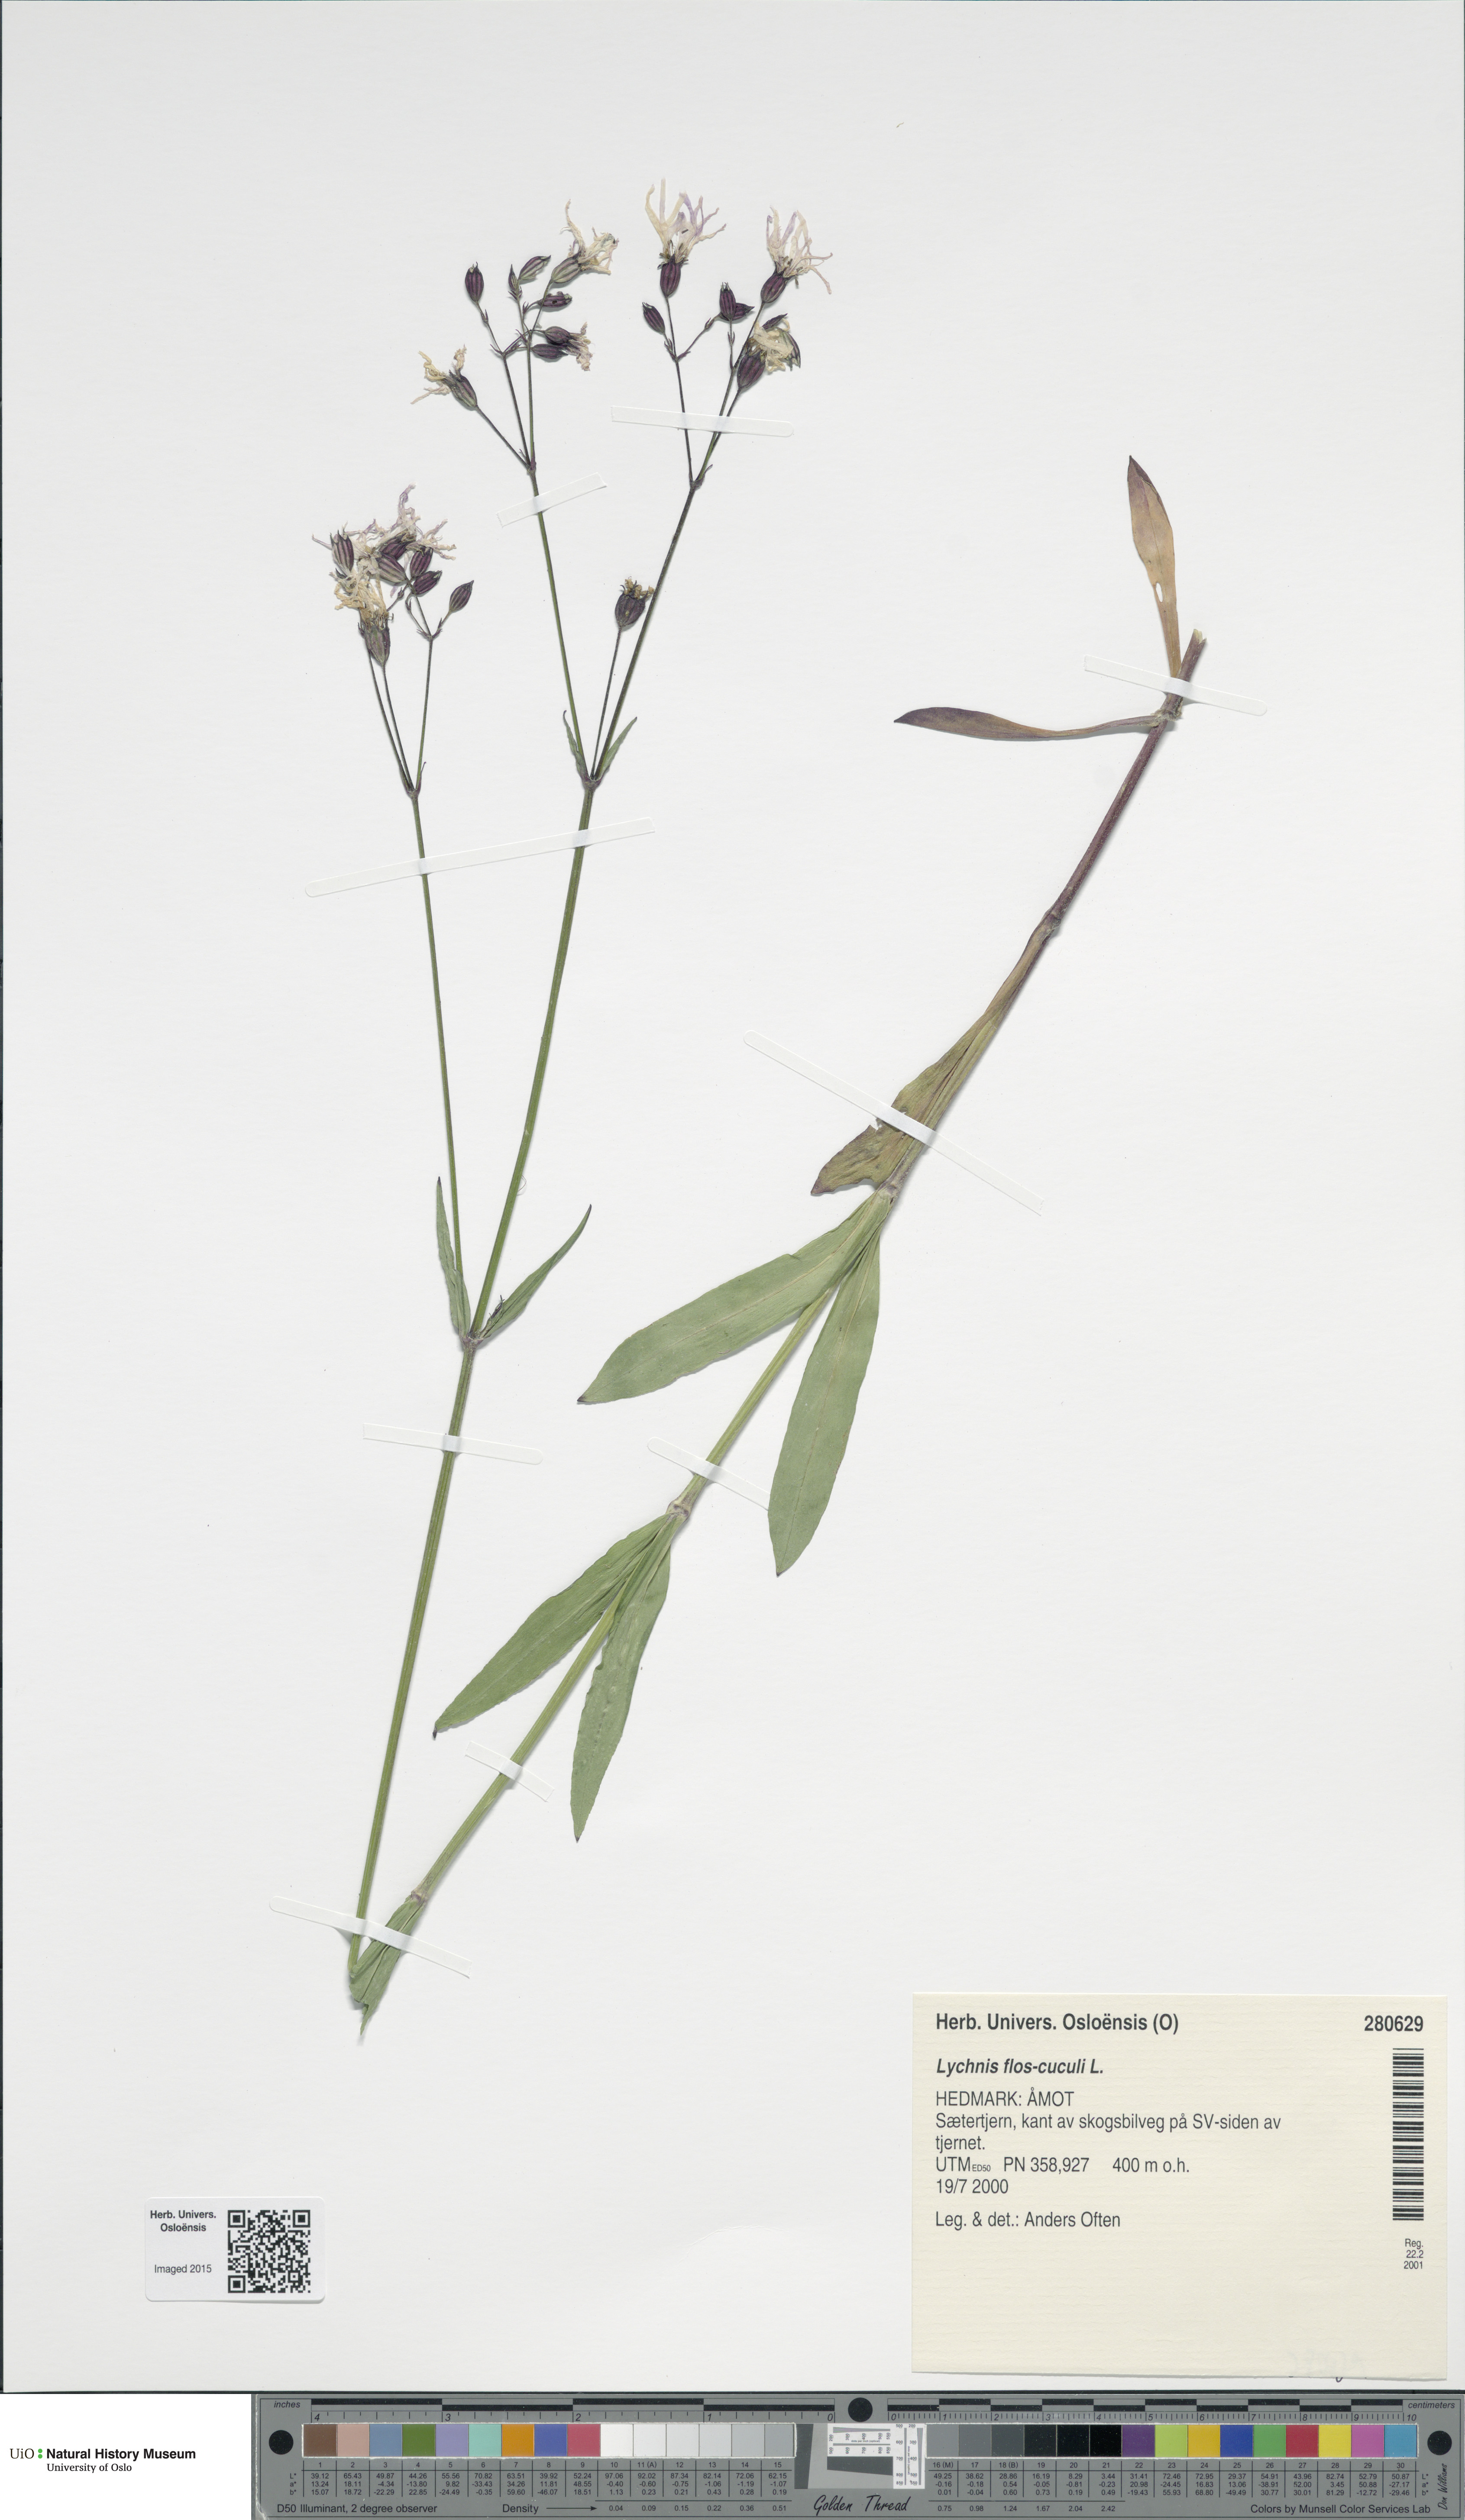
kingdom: Plantae
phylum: Tracheophyta
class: Magnoliopsida
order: Caryophyllales
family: Caryophyllaceae
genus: Silene
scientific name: Silene flos-cuculi
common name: Ragged-robin
